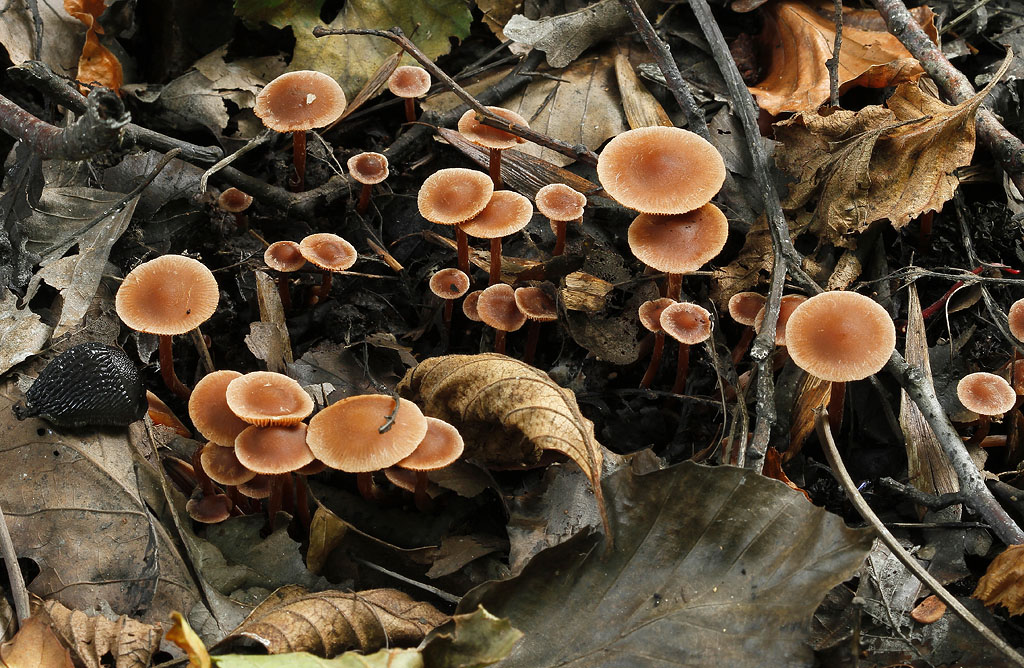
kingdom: Fungi
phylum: Basidiomycota
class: Agaricomycetes
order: Agaricales
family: Hymenogastraceae
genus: Naucoria
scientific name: Naucoria scolecina
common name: mørk elle-knaphat
